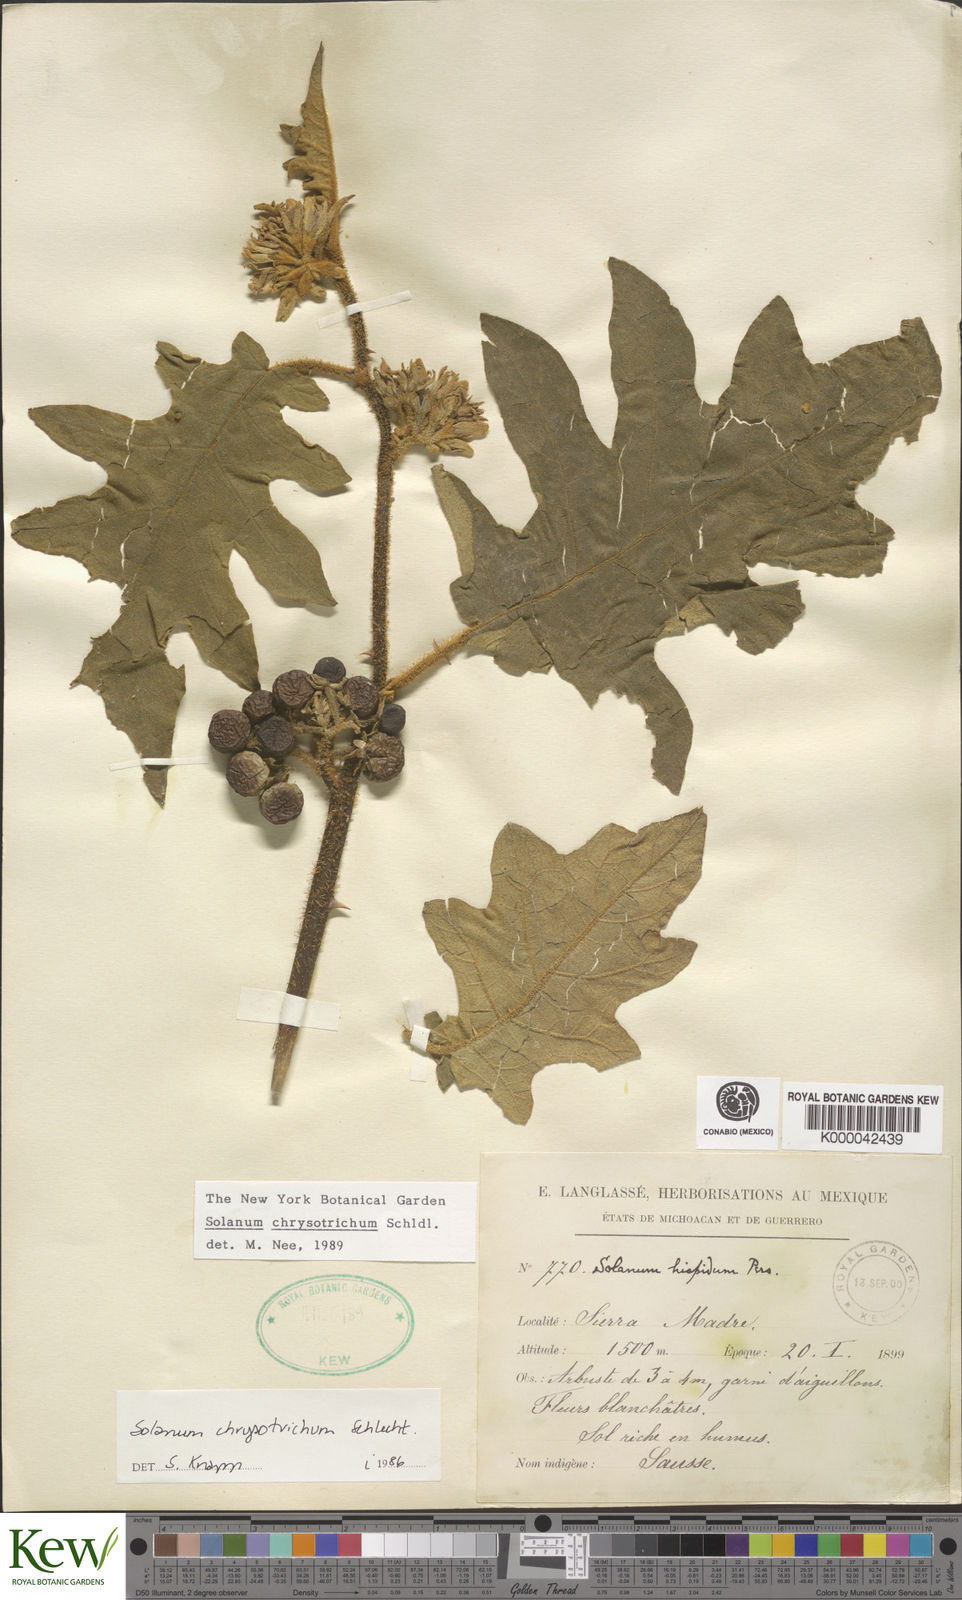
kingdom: Plantae
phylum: Tracheophyta
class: Magnoliopsida
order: Solanales
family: Solanaceae
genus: Solanum
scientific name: Solanum
